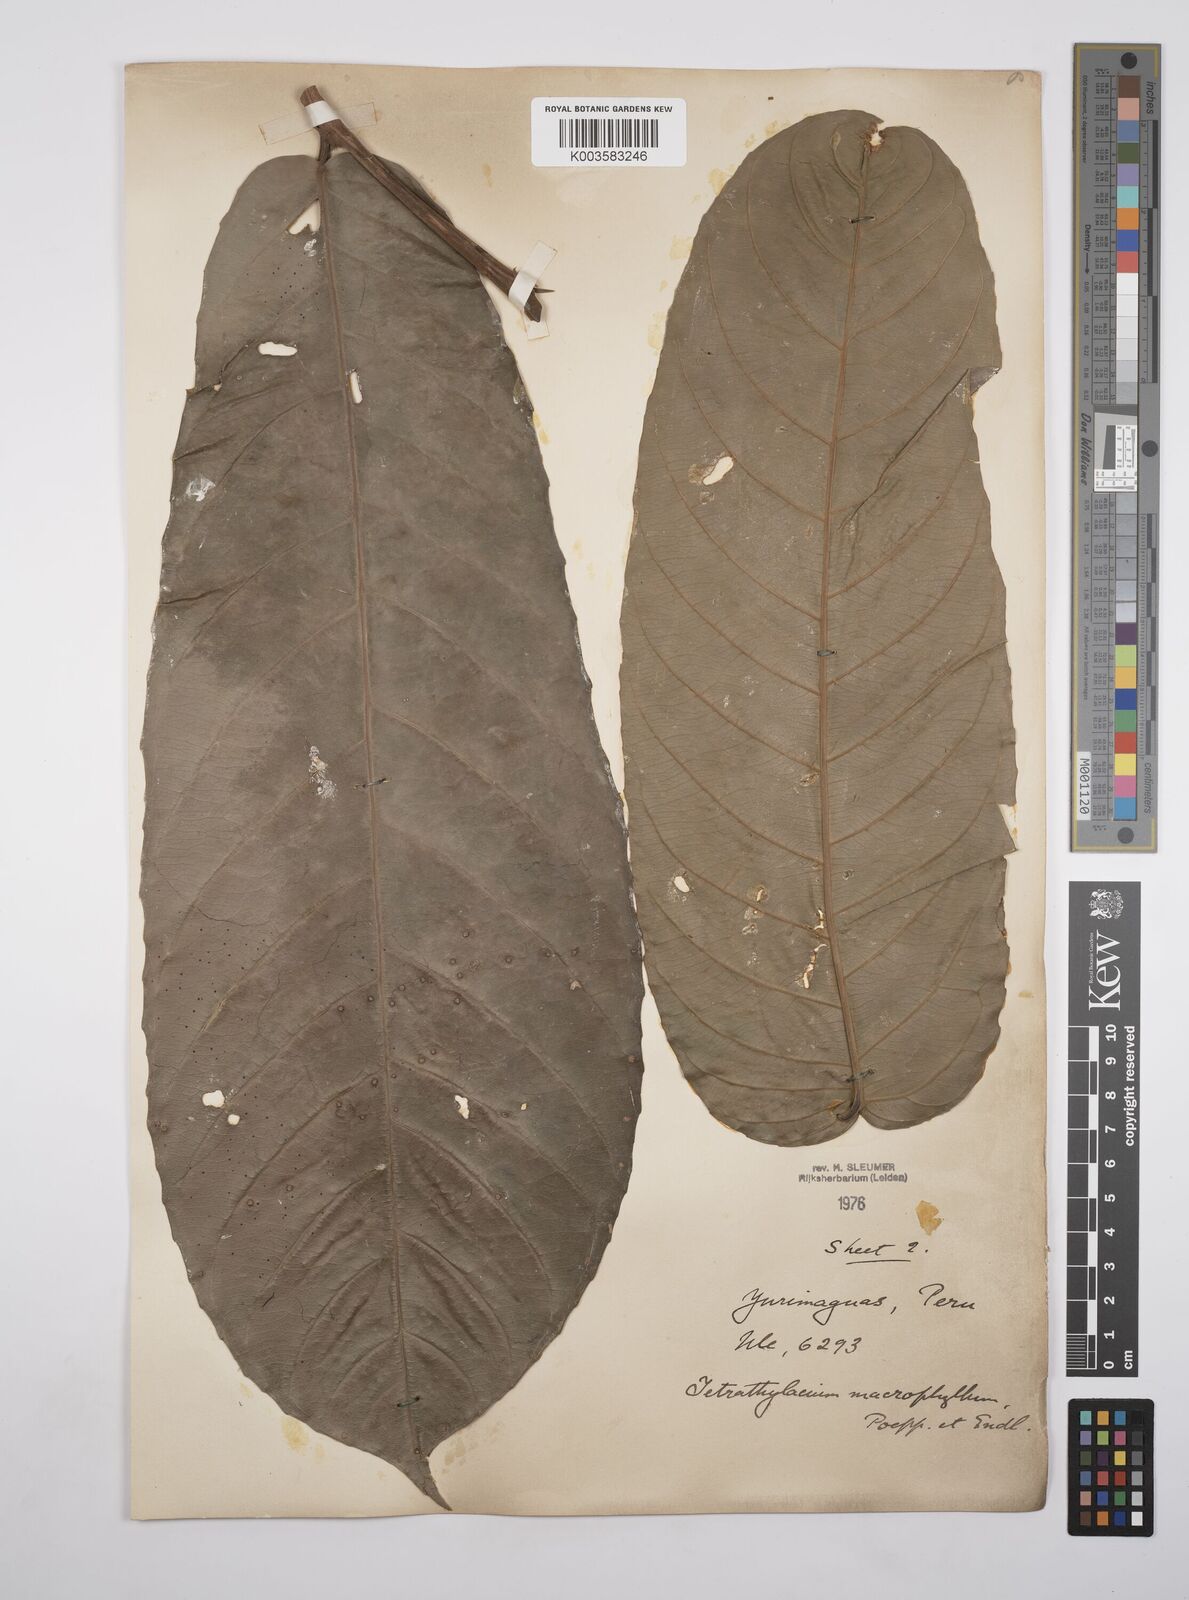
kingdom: Plantae
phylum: Tracheophyta
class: Magnoliopsida
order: Malpighiales
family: Salicaceae
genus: Tetrathylacium
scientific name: Tetrathylacium macrophyllum
